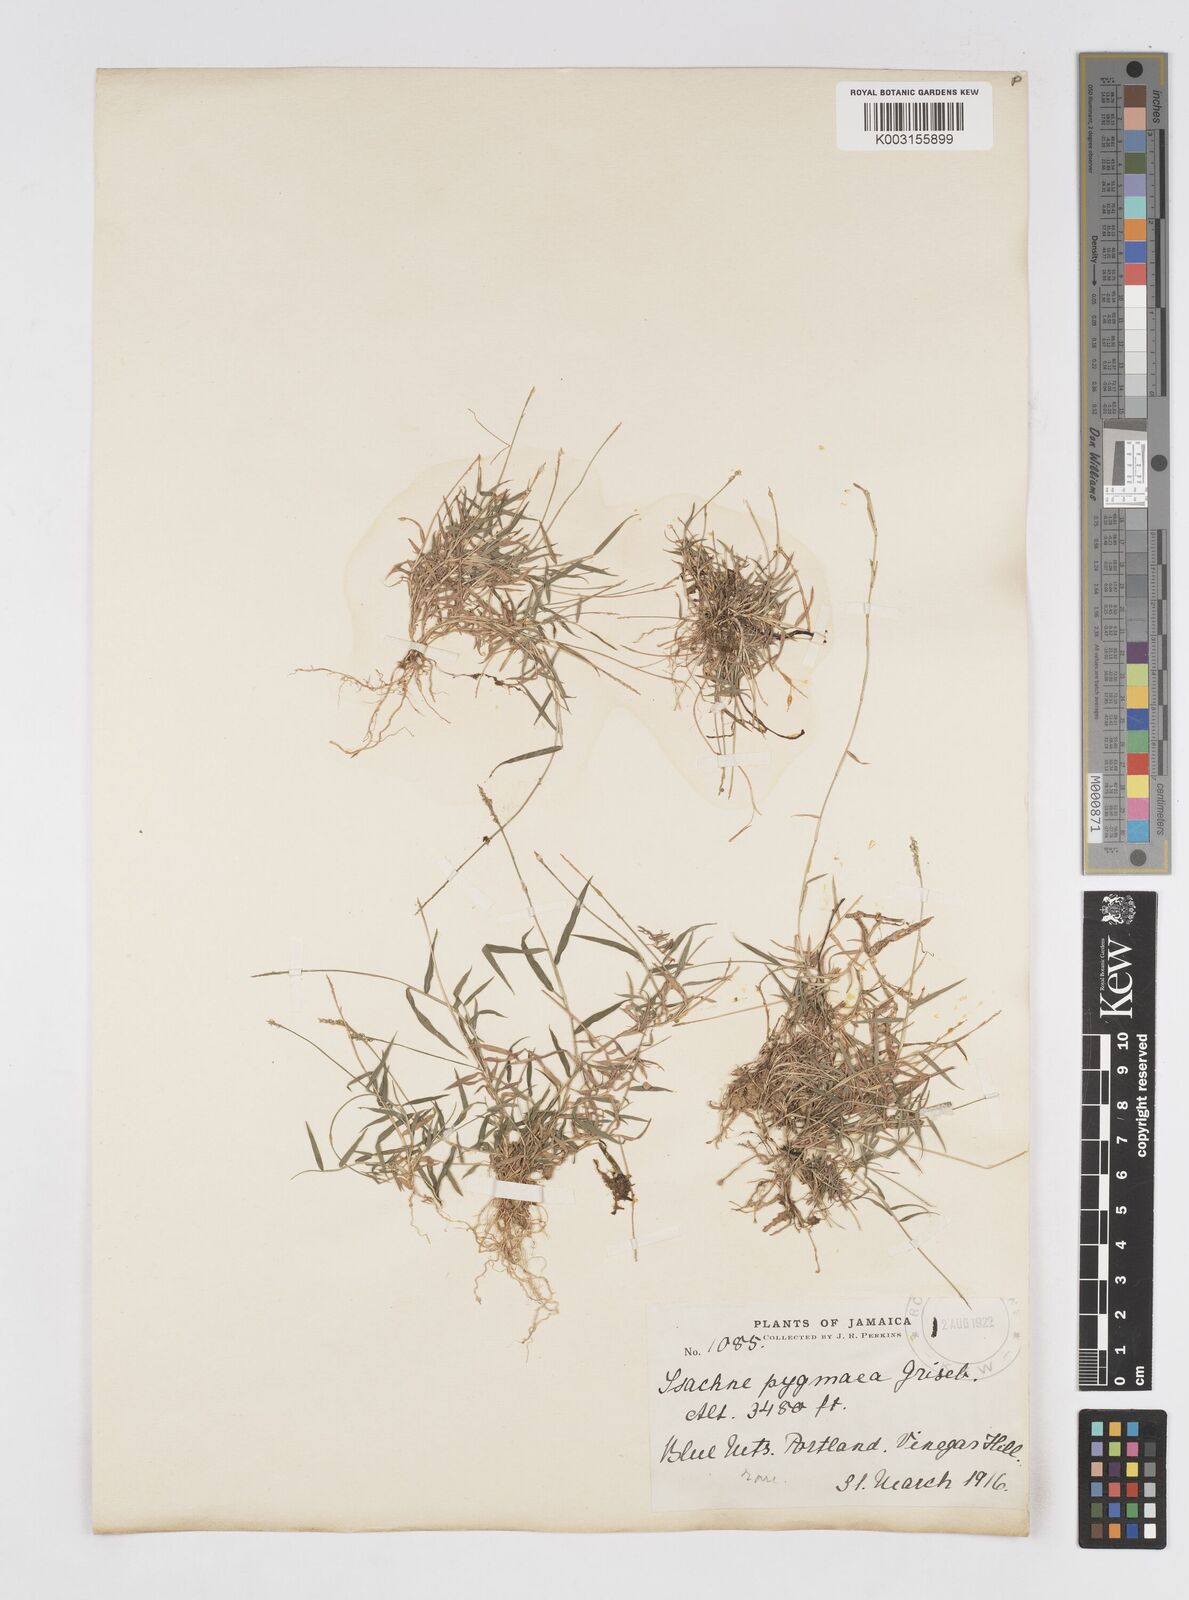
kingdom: Plantae
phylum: Tracheophyta
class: Liliopsida
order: Poales
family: Poaceae
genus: Isachne
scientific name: Isachne pygmaea
